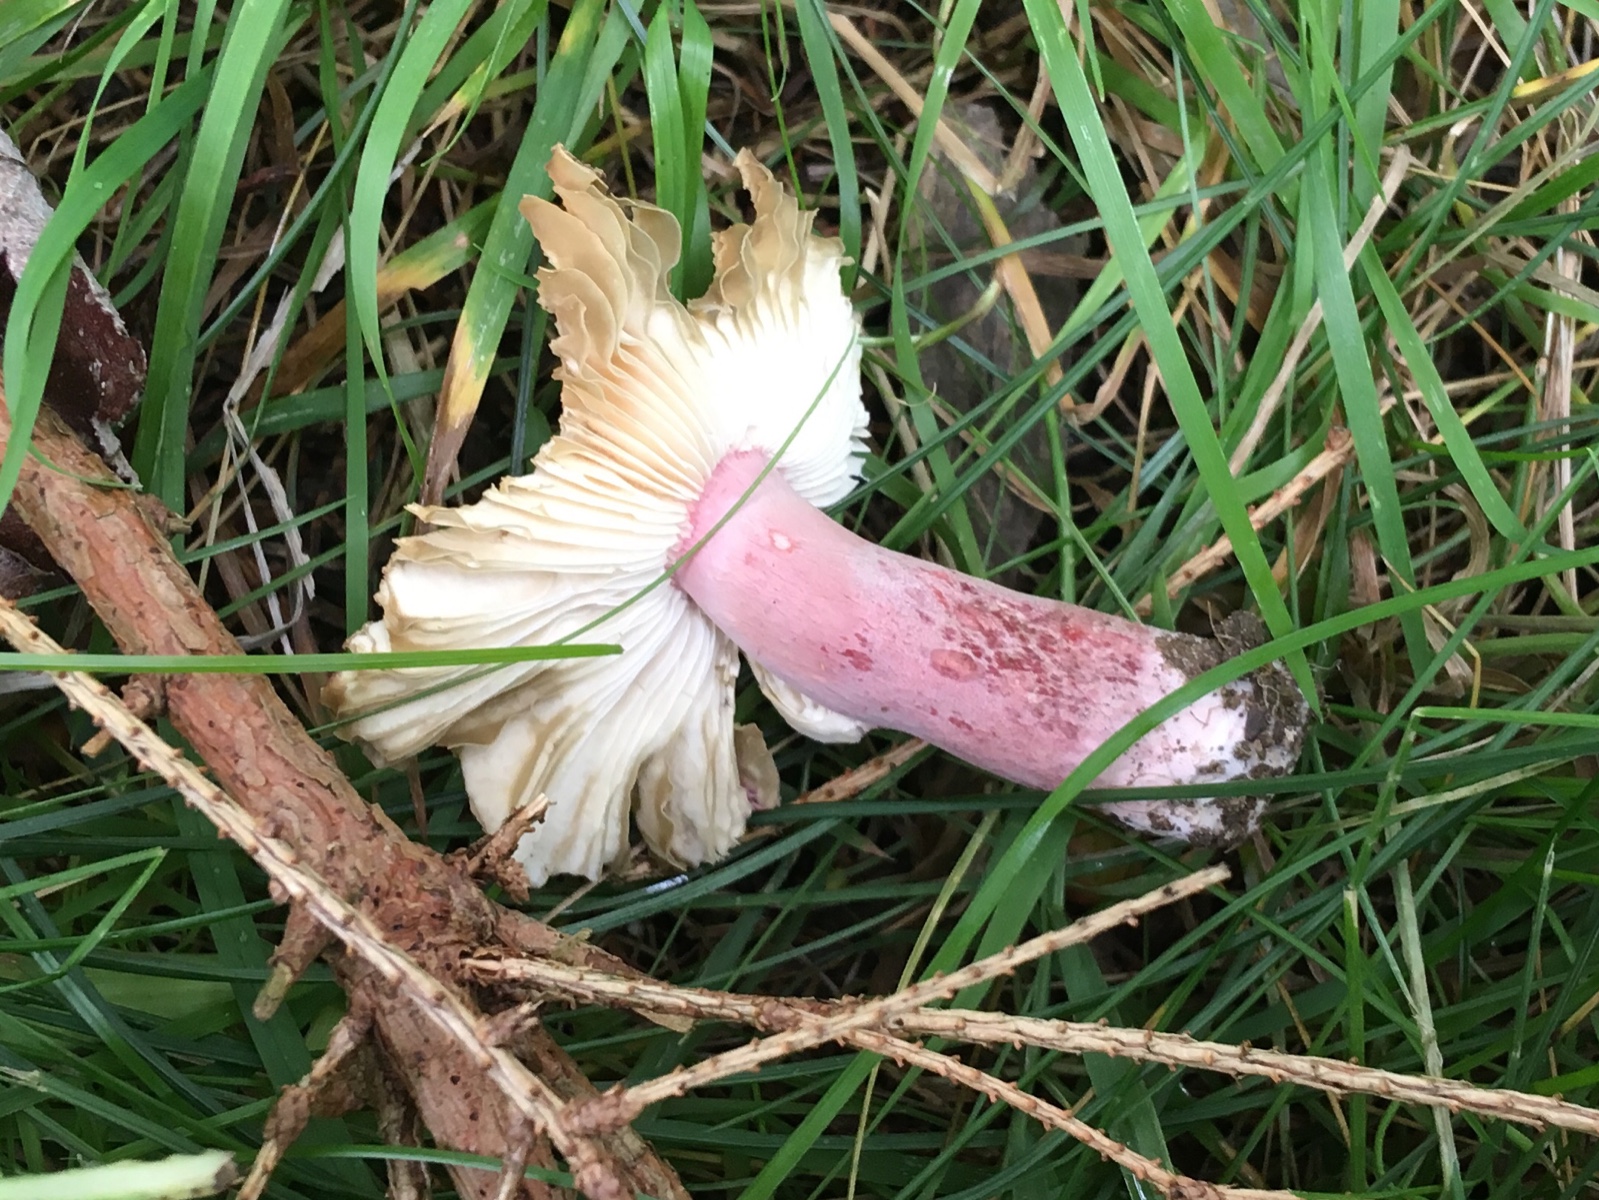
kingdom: Fungi
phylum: Basidiomycota
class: Agaricomycetes
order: Russulales
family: Russulaceae
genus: Russula
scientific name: Russula queletii
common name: Quélets skørhat
